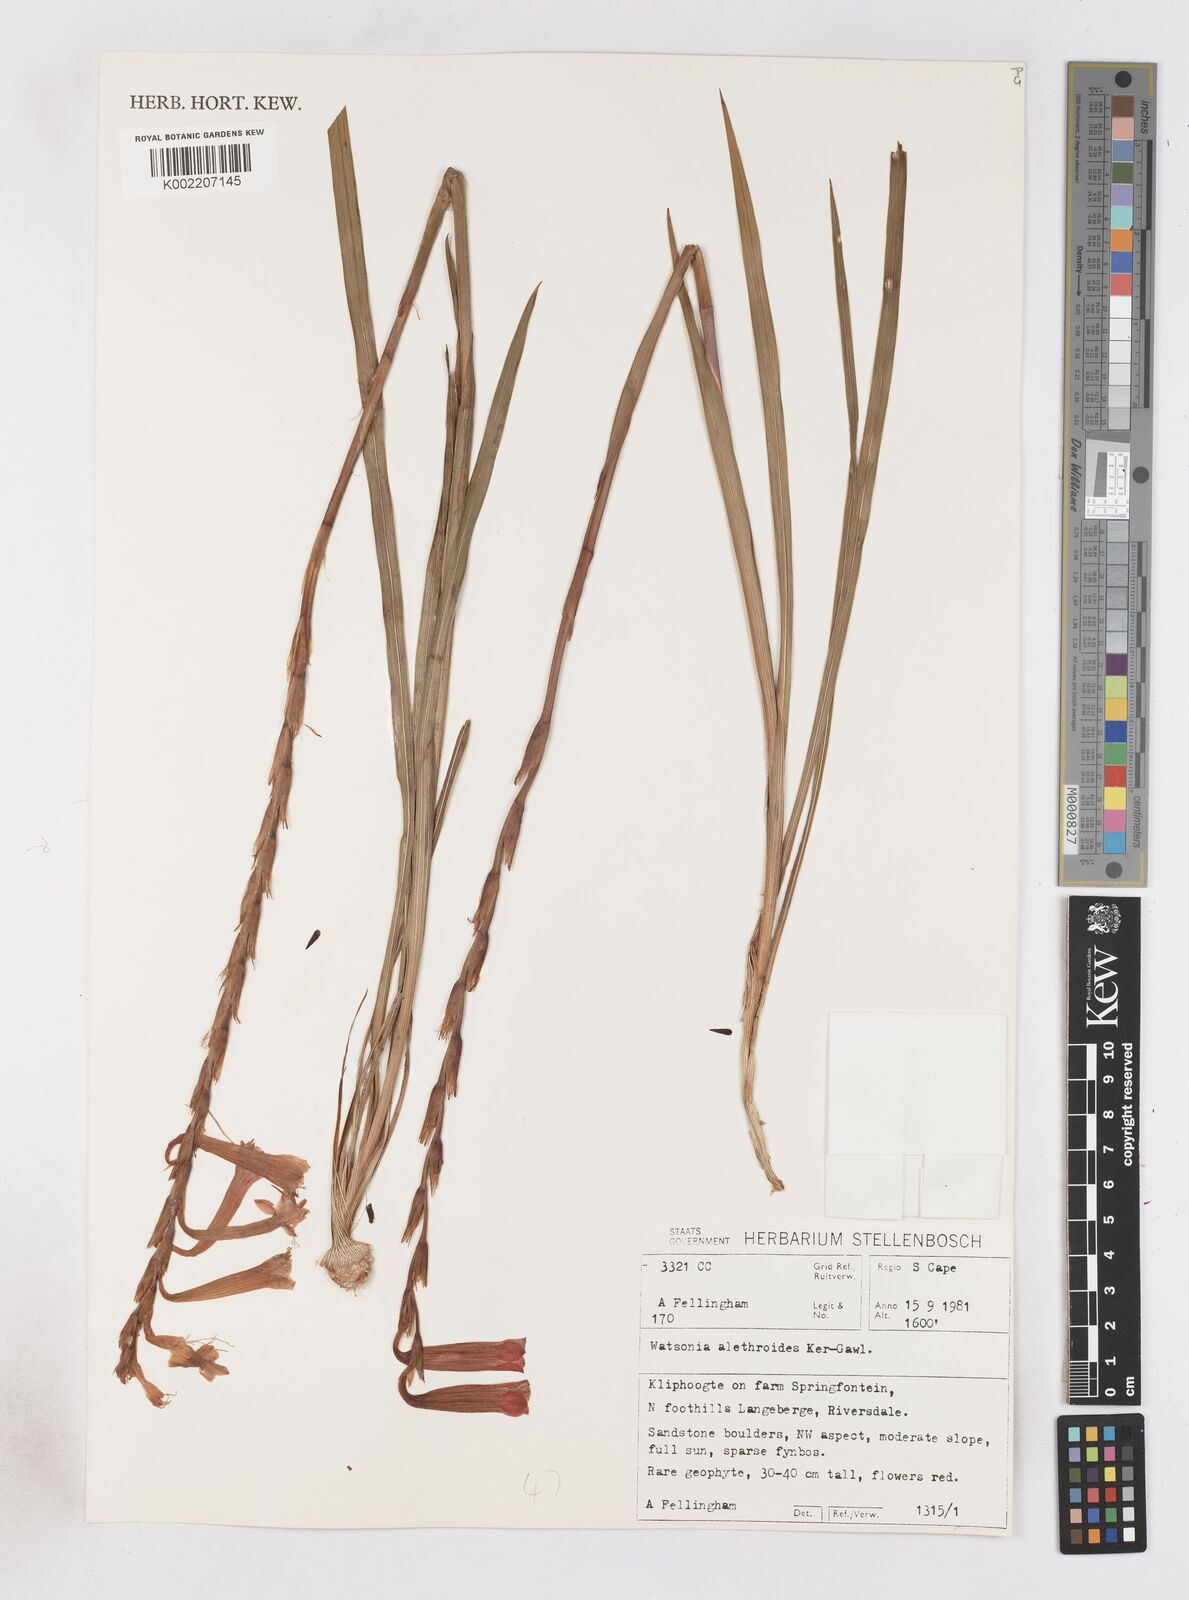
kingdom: Plantae
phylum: Tracheophyta
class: Liliopsida
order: Asparagales
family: Iridaceae
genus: Watsonia
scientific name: Watsonia aletroides
